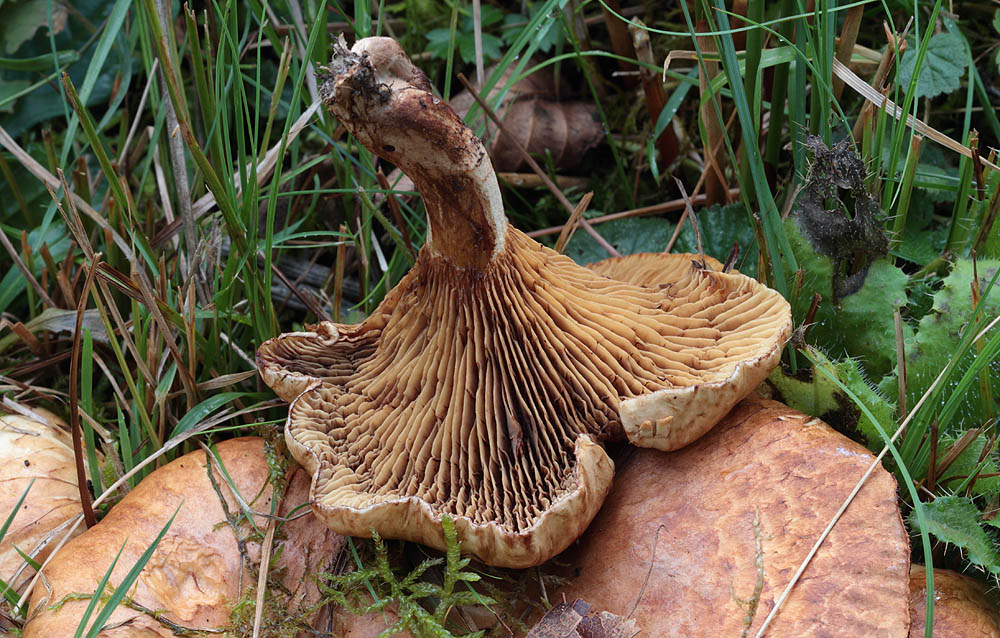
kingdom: Fungi
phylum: Basidiomycota
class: Agaricomycetes
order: Boletales
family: Paxillaceae
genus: Paxillus
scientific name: Paxillus rubicundulus
